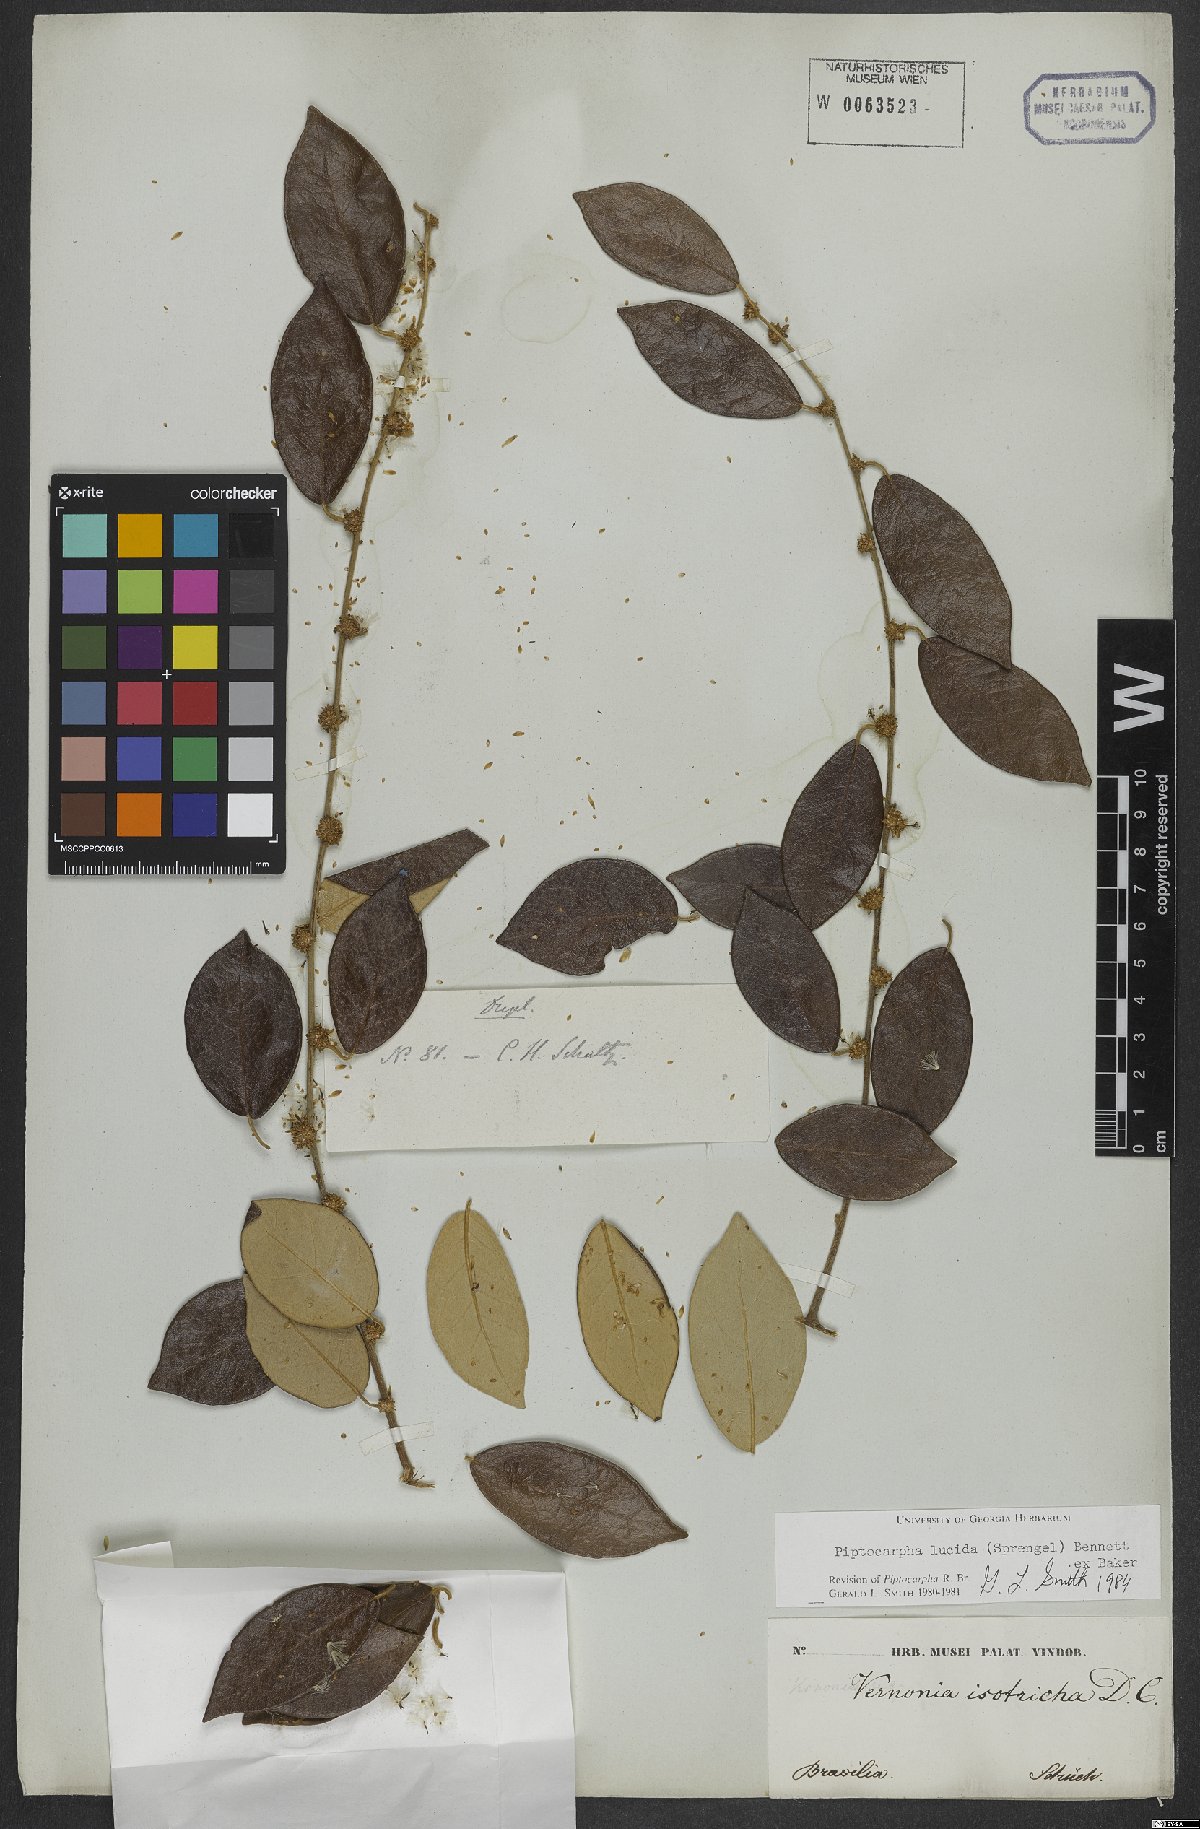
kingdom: Plantae
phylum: Tracheophyta
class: Magnoliopsida
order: Asterales
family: Asteraceae
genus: Piptocarpha
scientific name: Piptocarpha lucida
